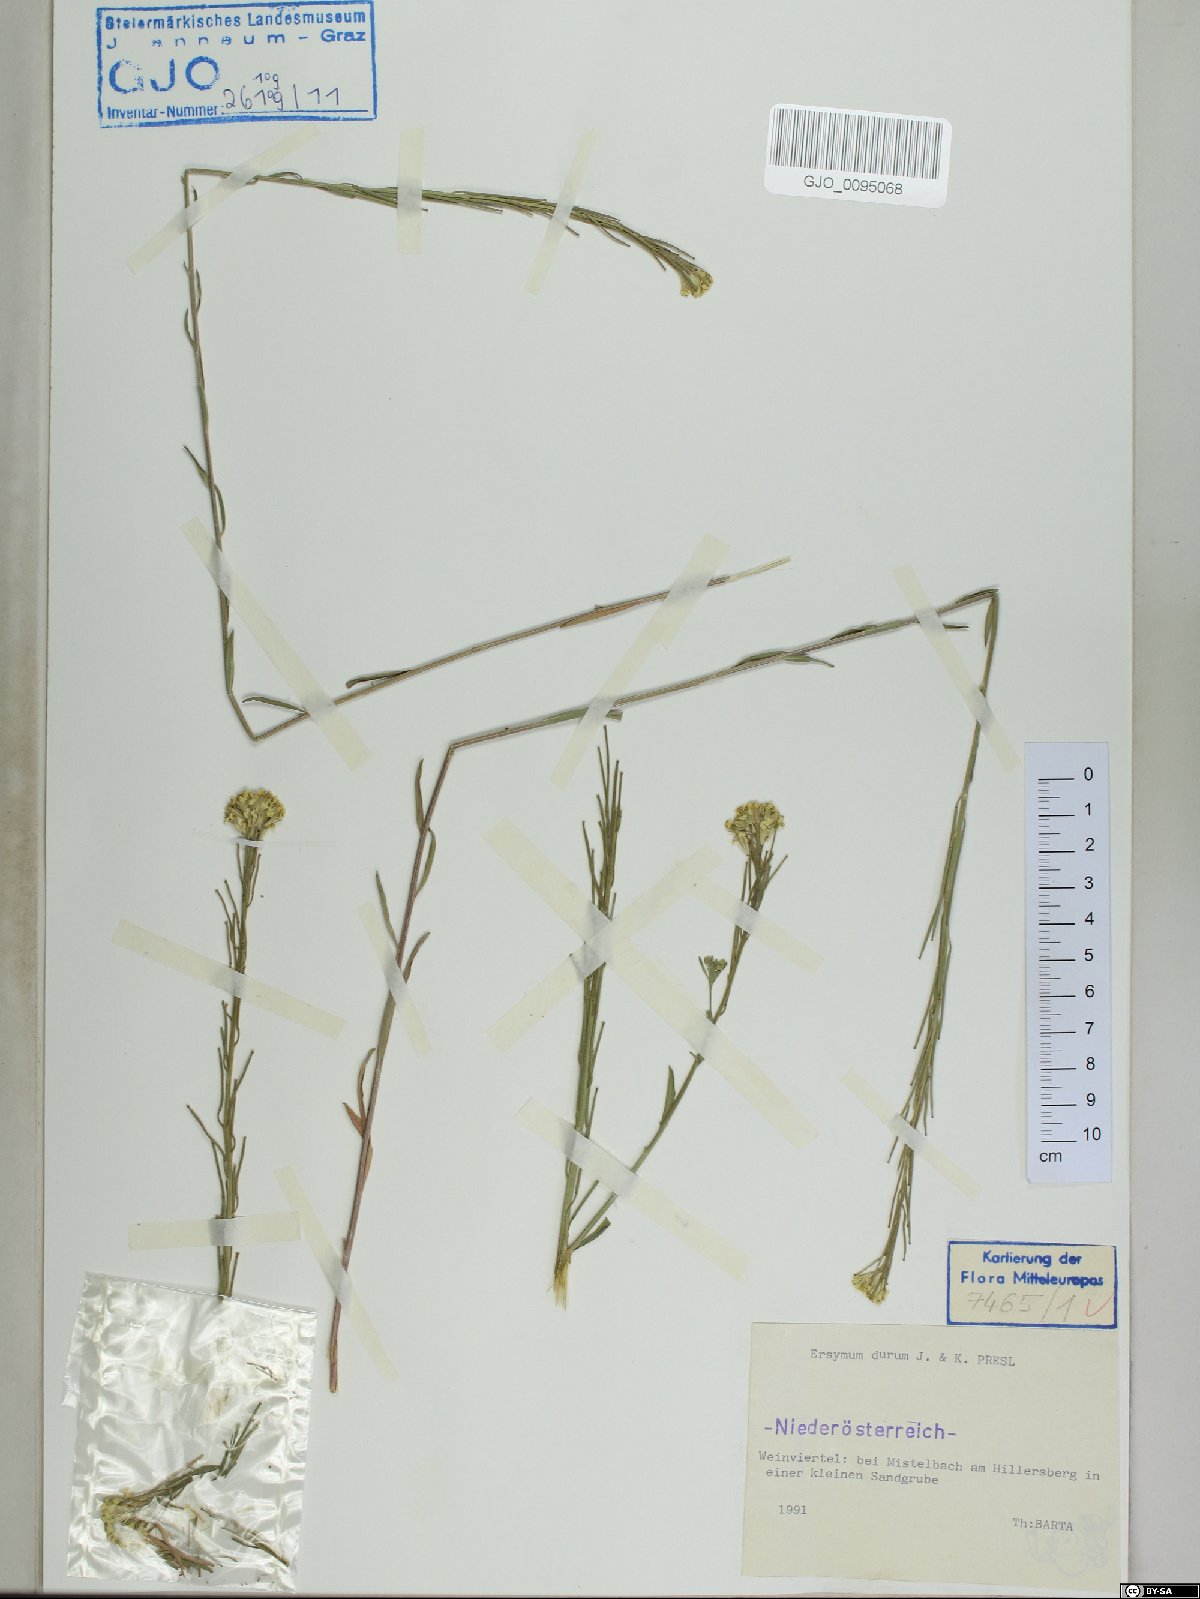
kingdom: Plantae
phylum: Tracheophyta
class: Magnoliopsida
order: Brassicales
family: Brassicaceae
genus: Erysimum
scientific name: Erysimum marschallianum
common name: Hard wallflower
